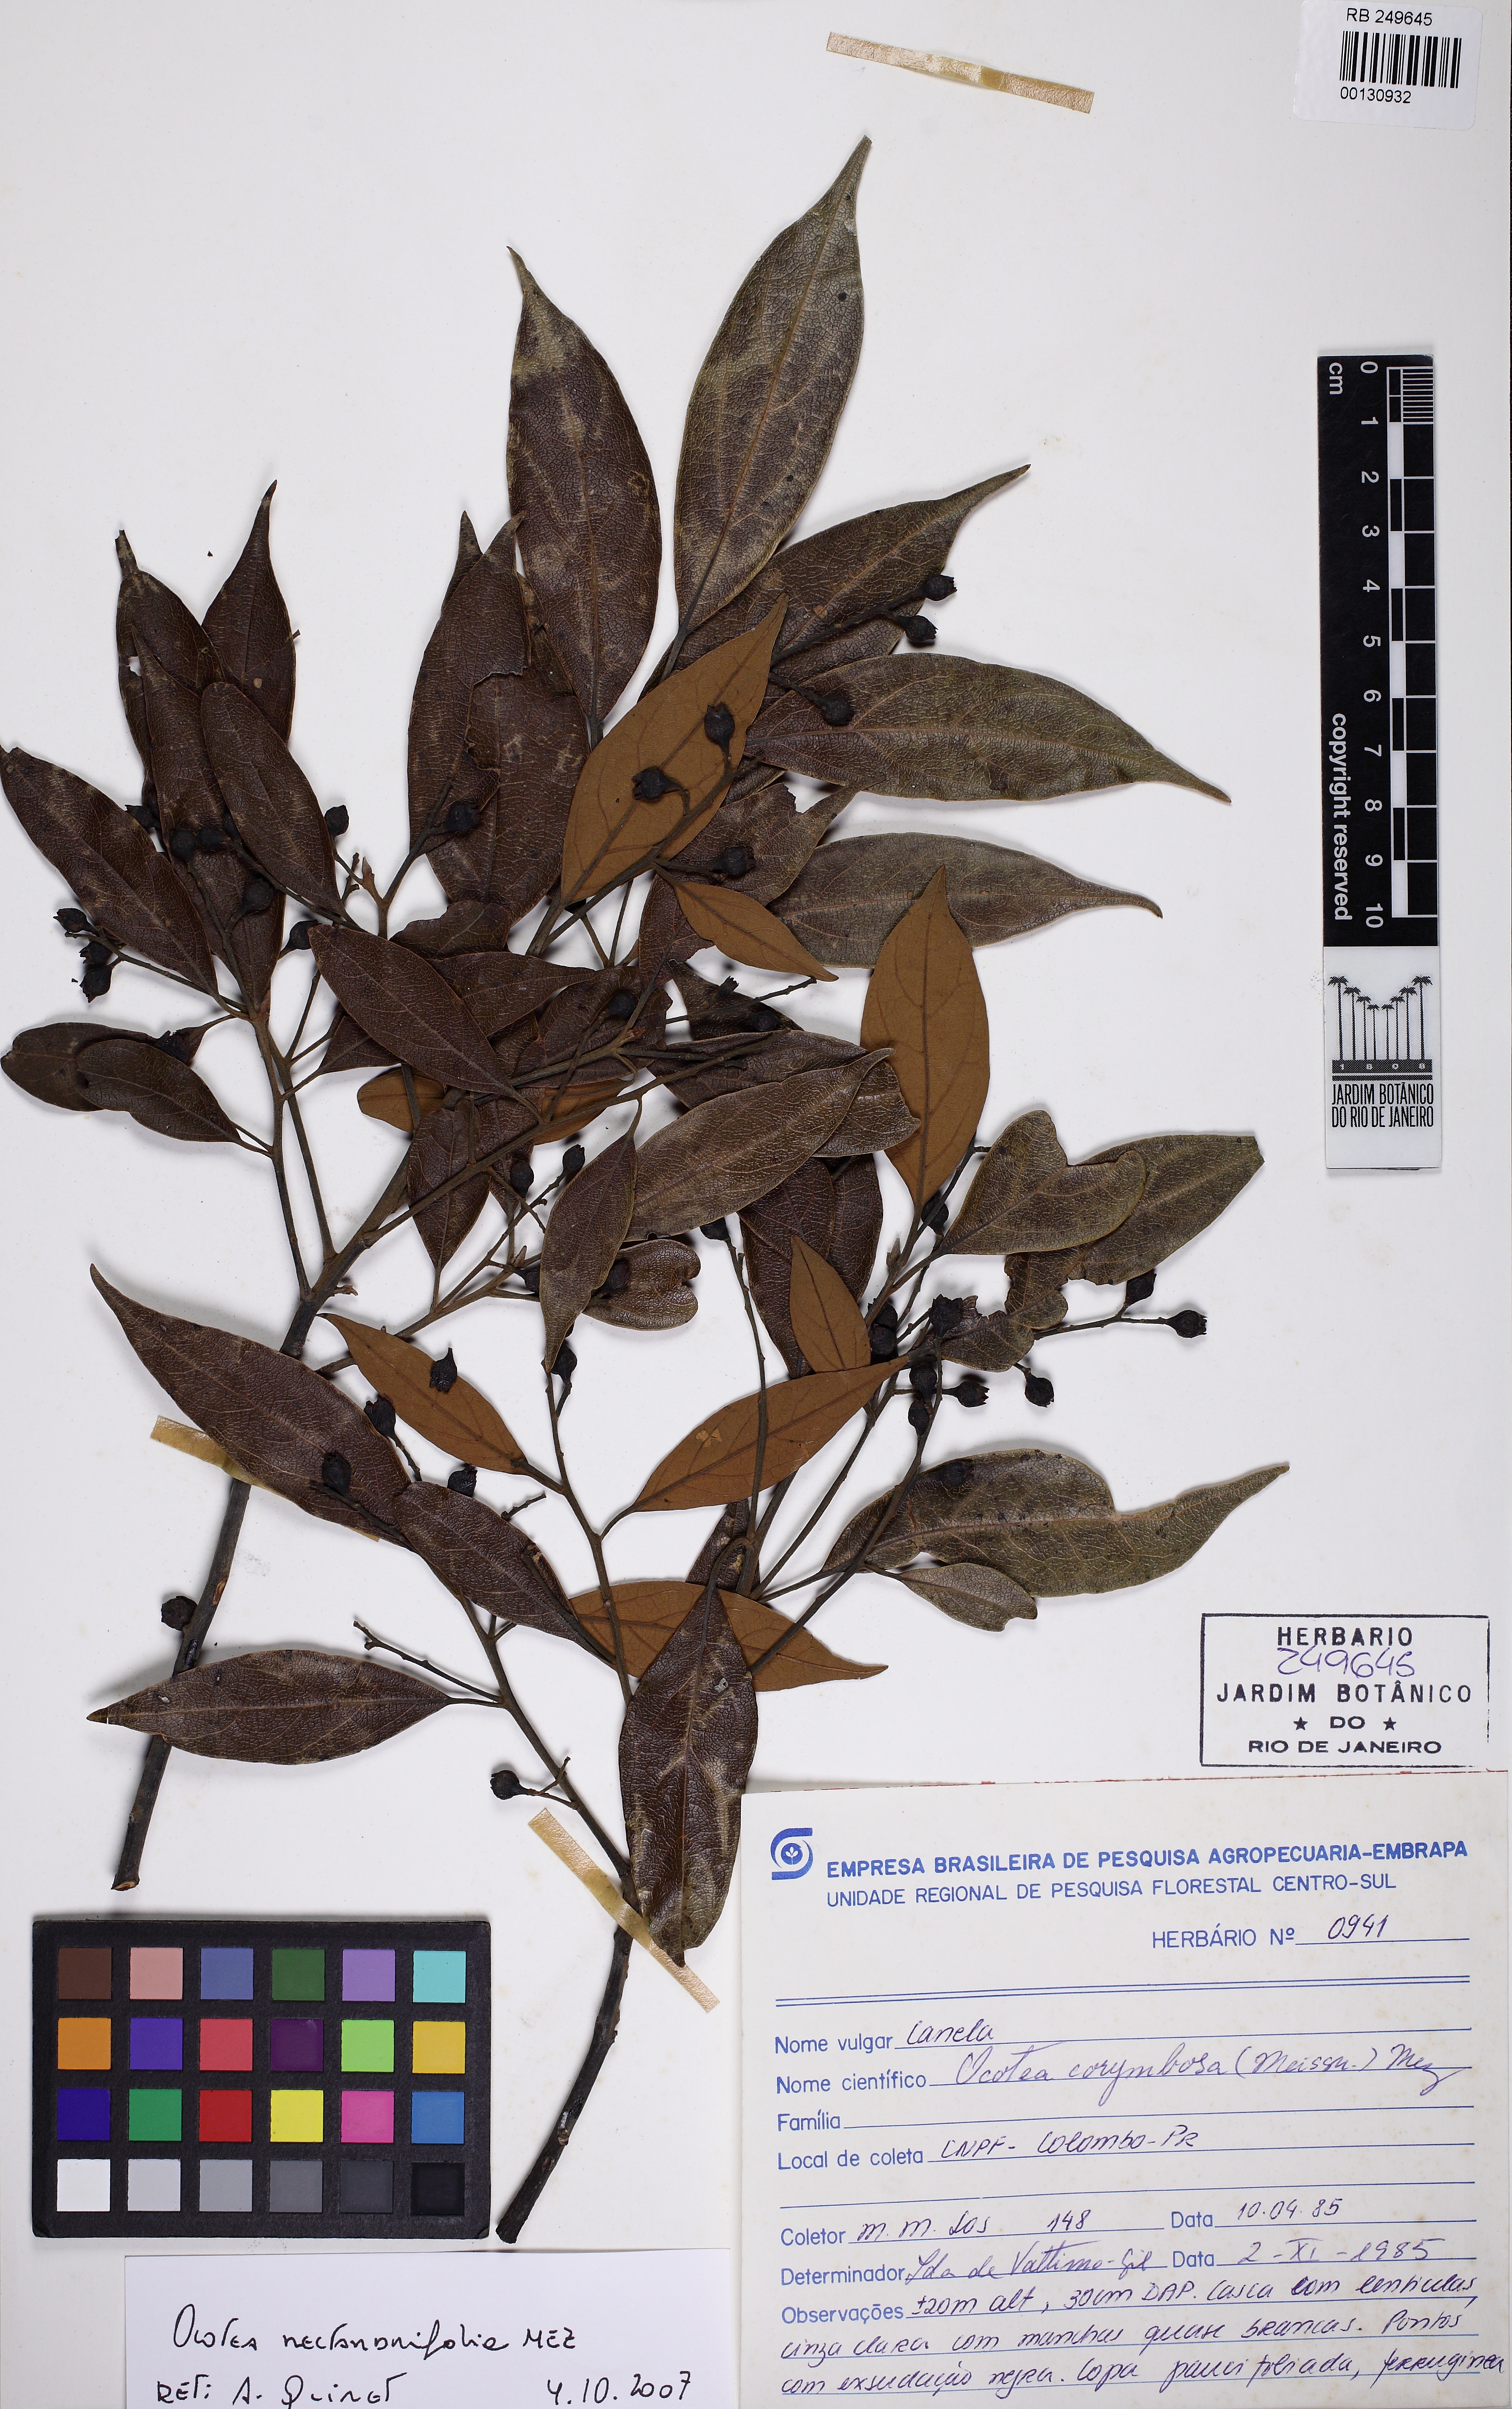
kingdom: Plantae
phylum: Tracheophyta
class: Magnoliopsida
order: Laurales
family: Lauraceae
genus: Ocotea
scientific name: Ocotea nectandrifolia
